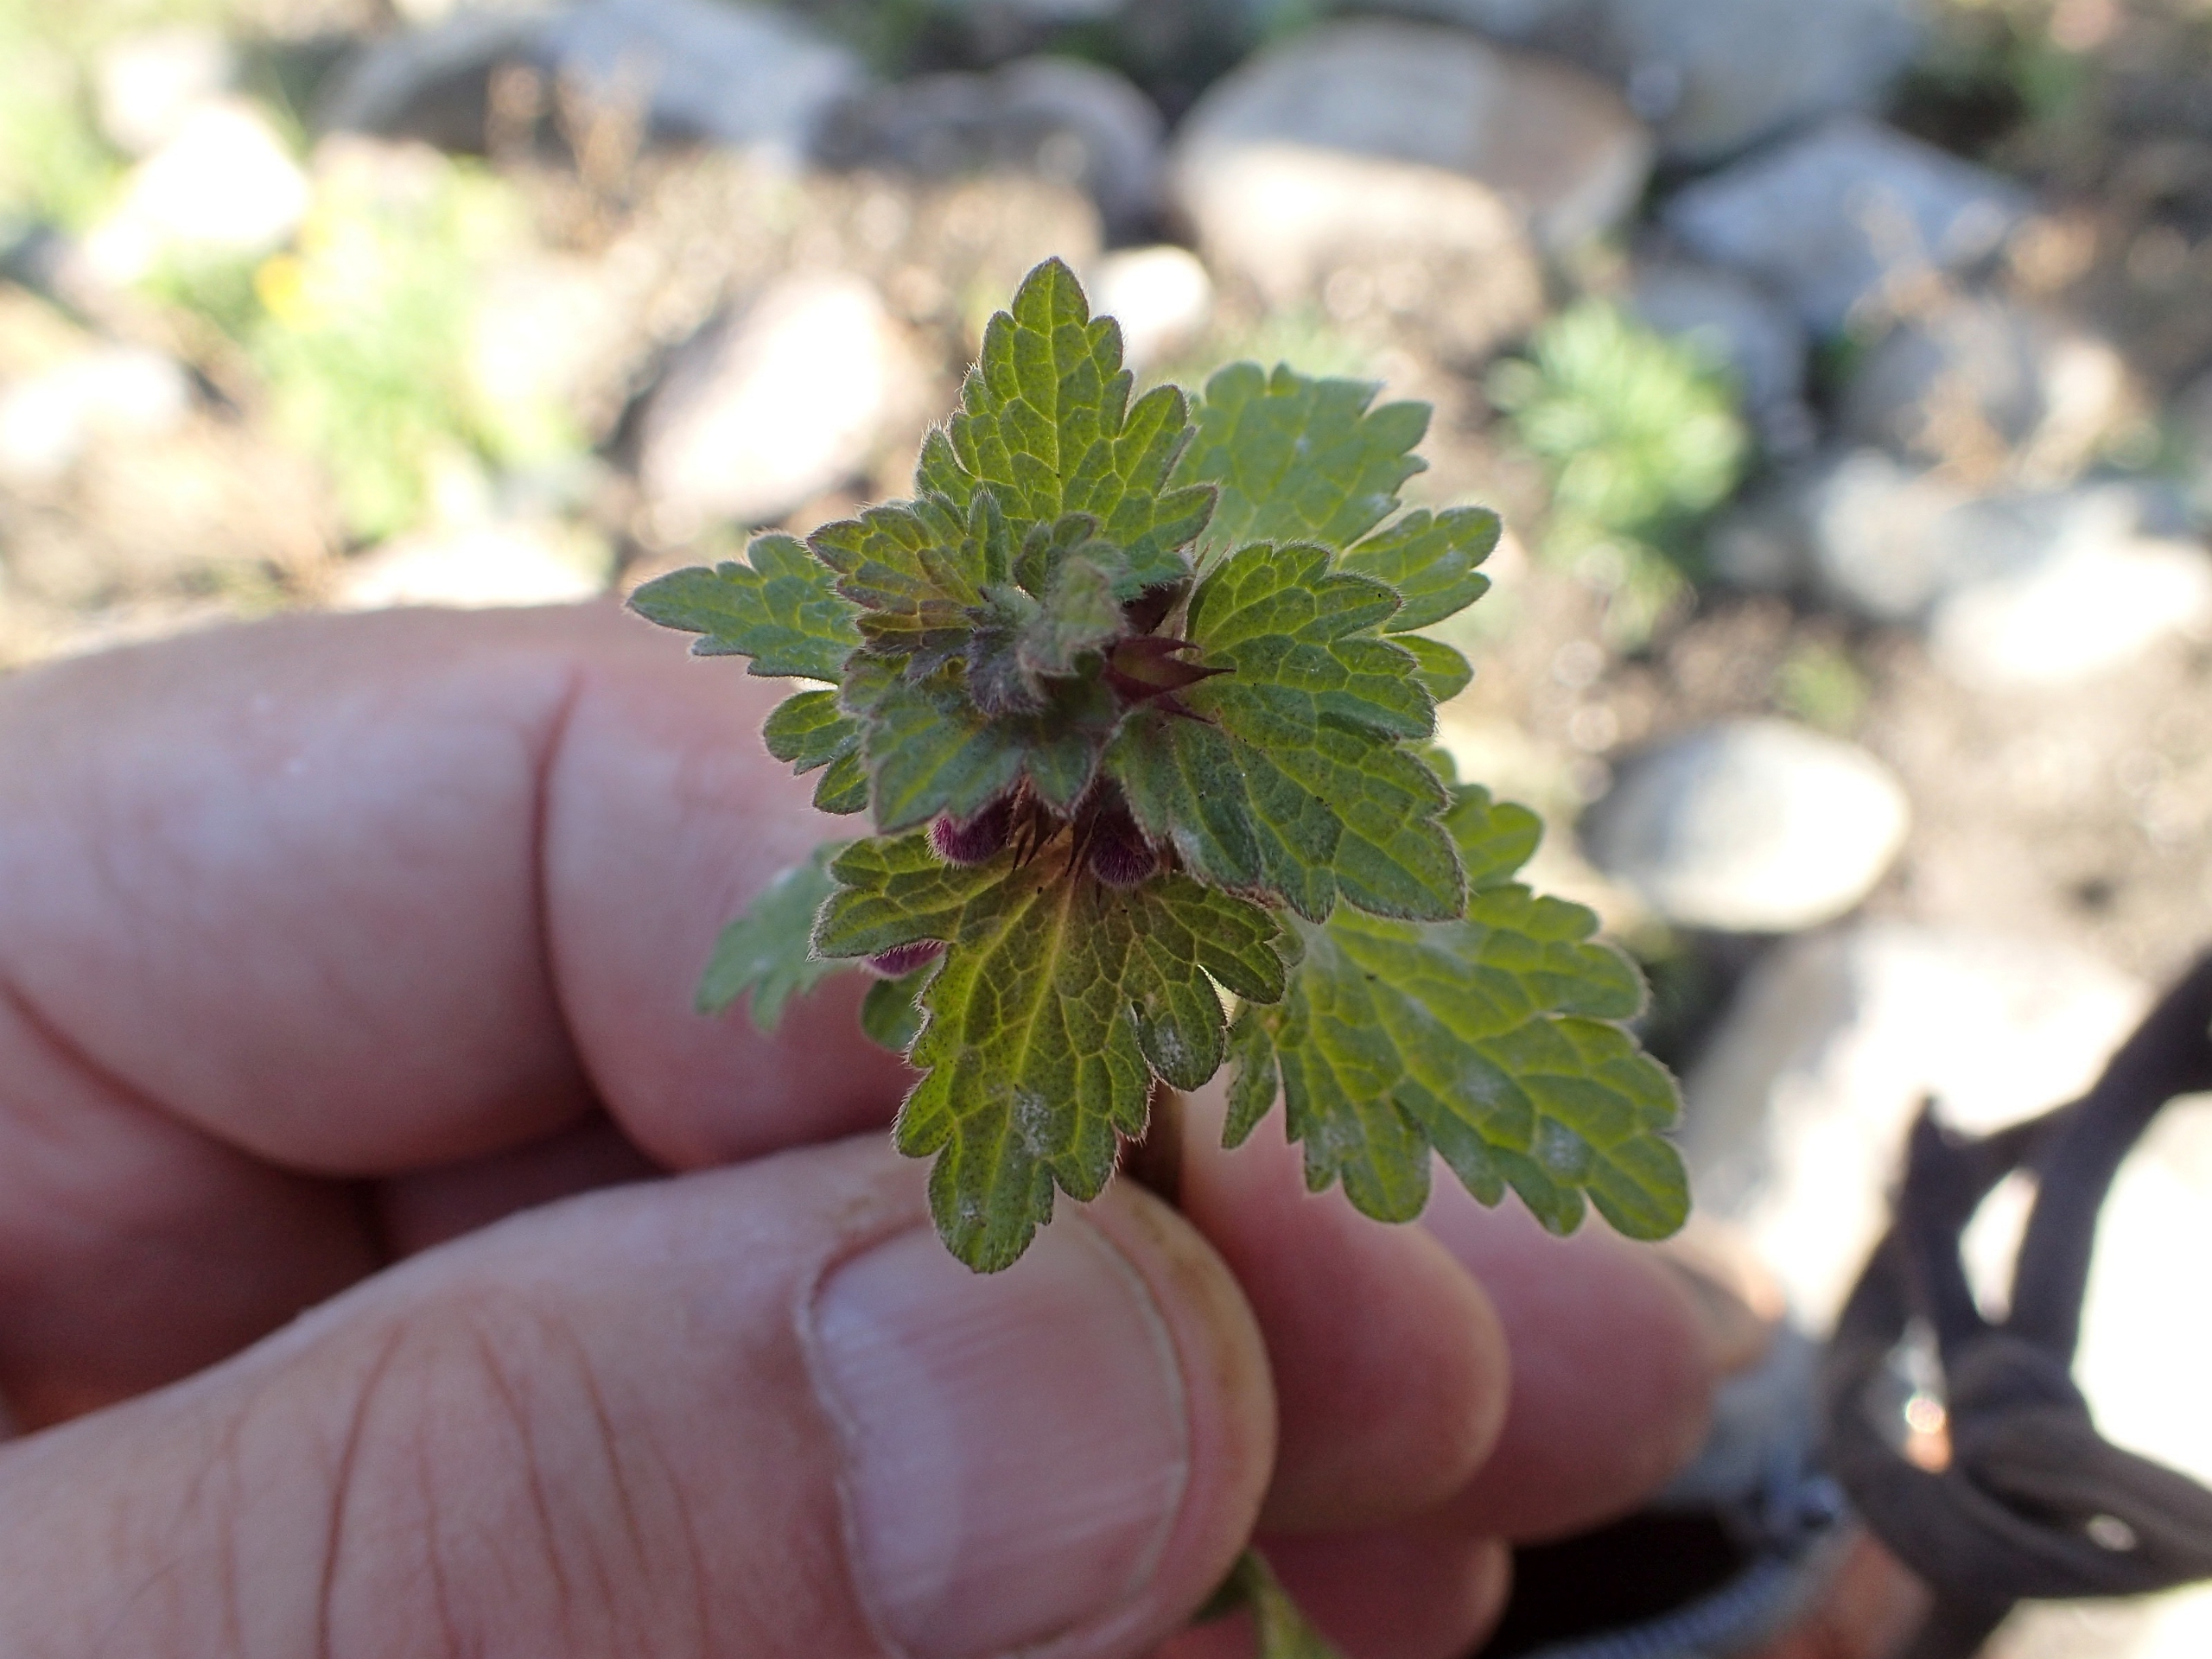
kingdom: Plantae
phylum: Tracheophyta
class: Magnoliopsida
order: Lamiales
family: Lamiaceae
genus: Lamium
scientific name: Lamium hybridum
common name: Fliget tvetand
